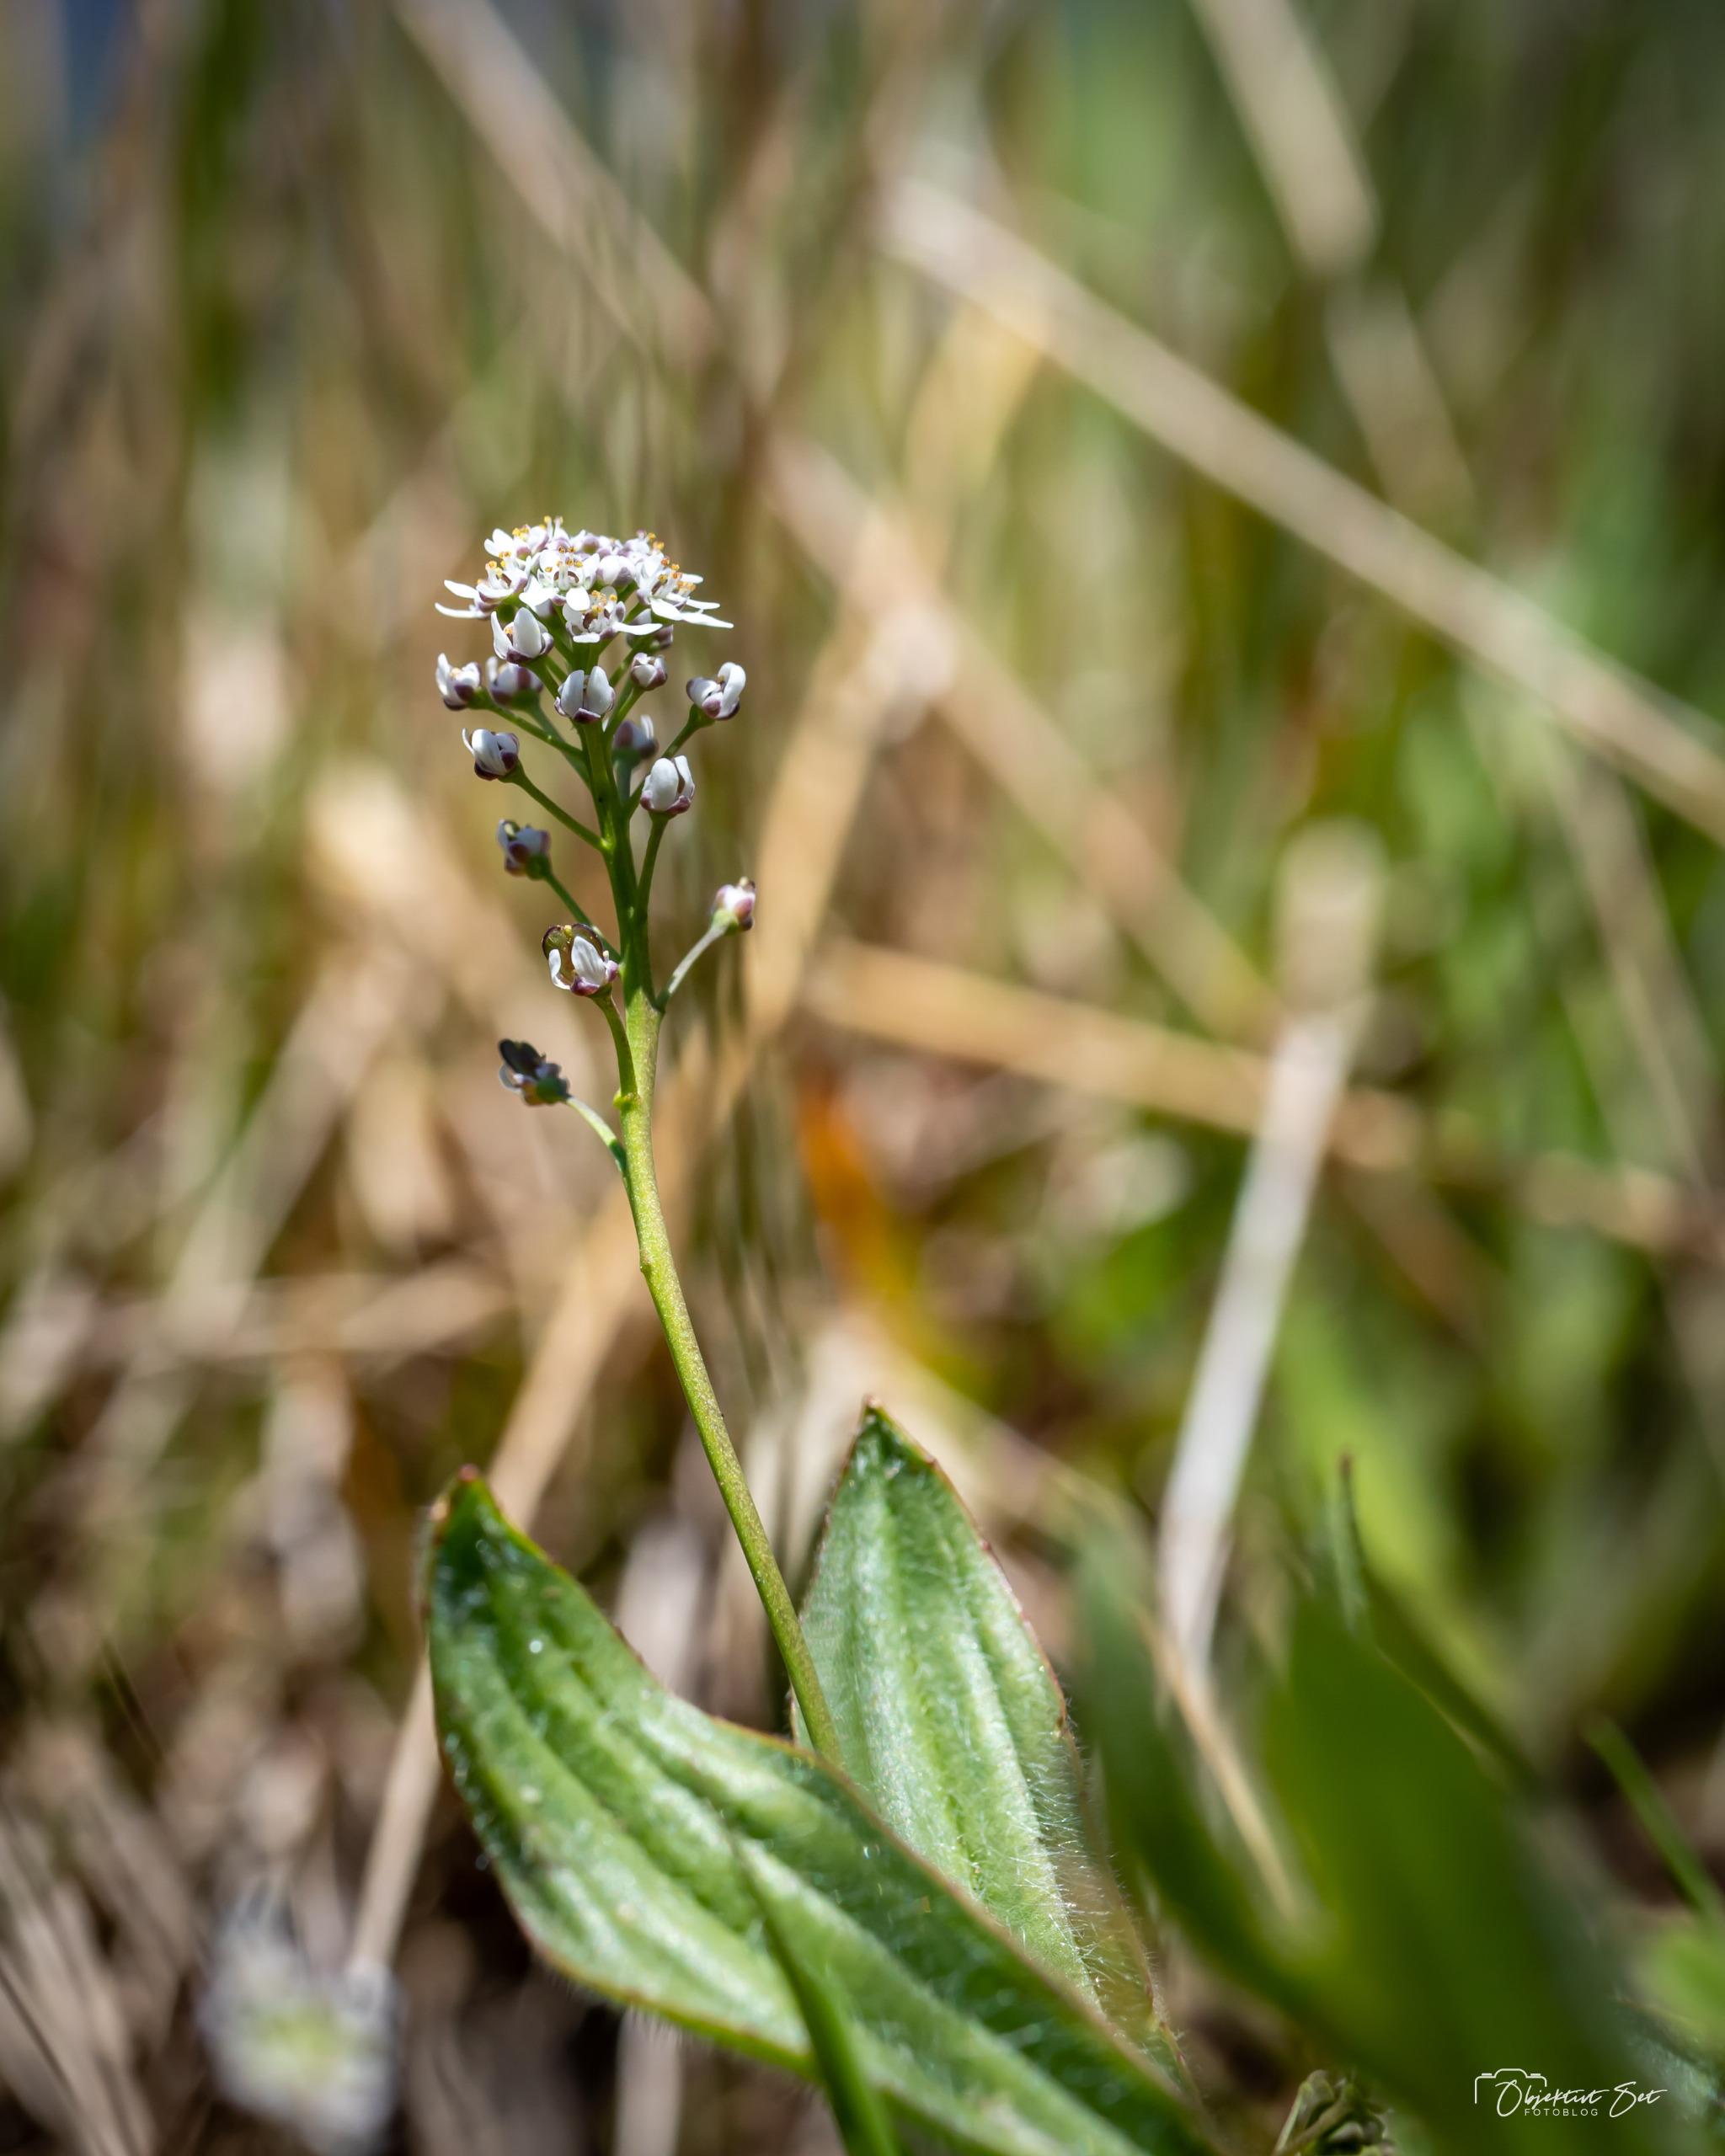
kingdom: Plantae
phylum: Tracheophyta
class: Magnoliopsida
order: Brassicales
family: Brassicaceae
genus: Teesdalia
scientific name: Teesdalia nudicaulis
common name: Flipkrave
